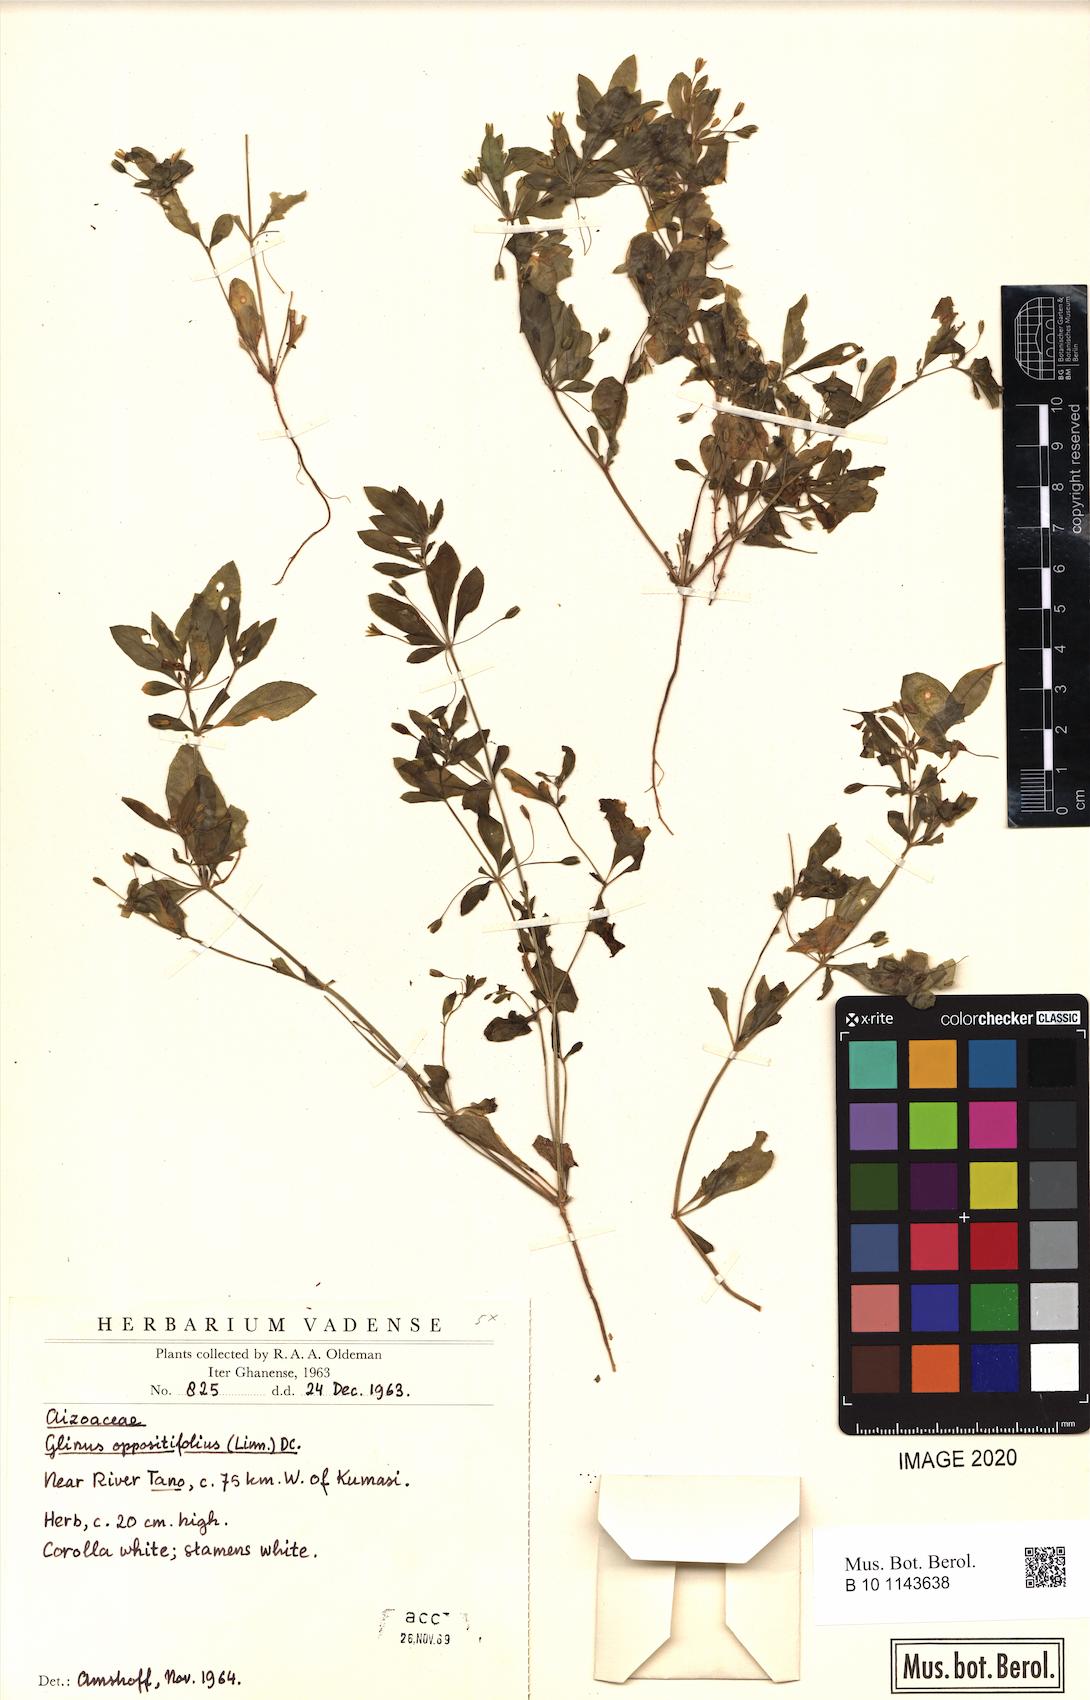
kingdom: Plantae
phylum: Tracheophyta
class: Magnoliopsida
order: Caryophyllales
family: Molluginaceae
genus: Glinus
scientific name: Glinus oppositifolius
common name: Slender carpetweed
